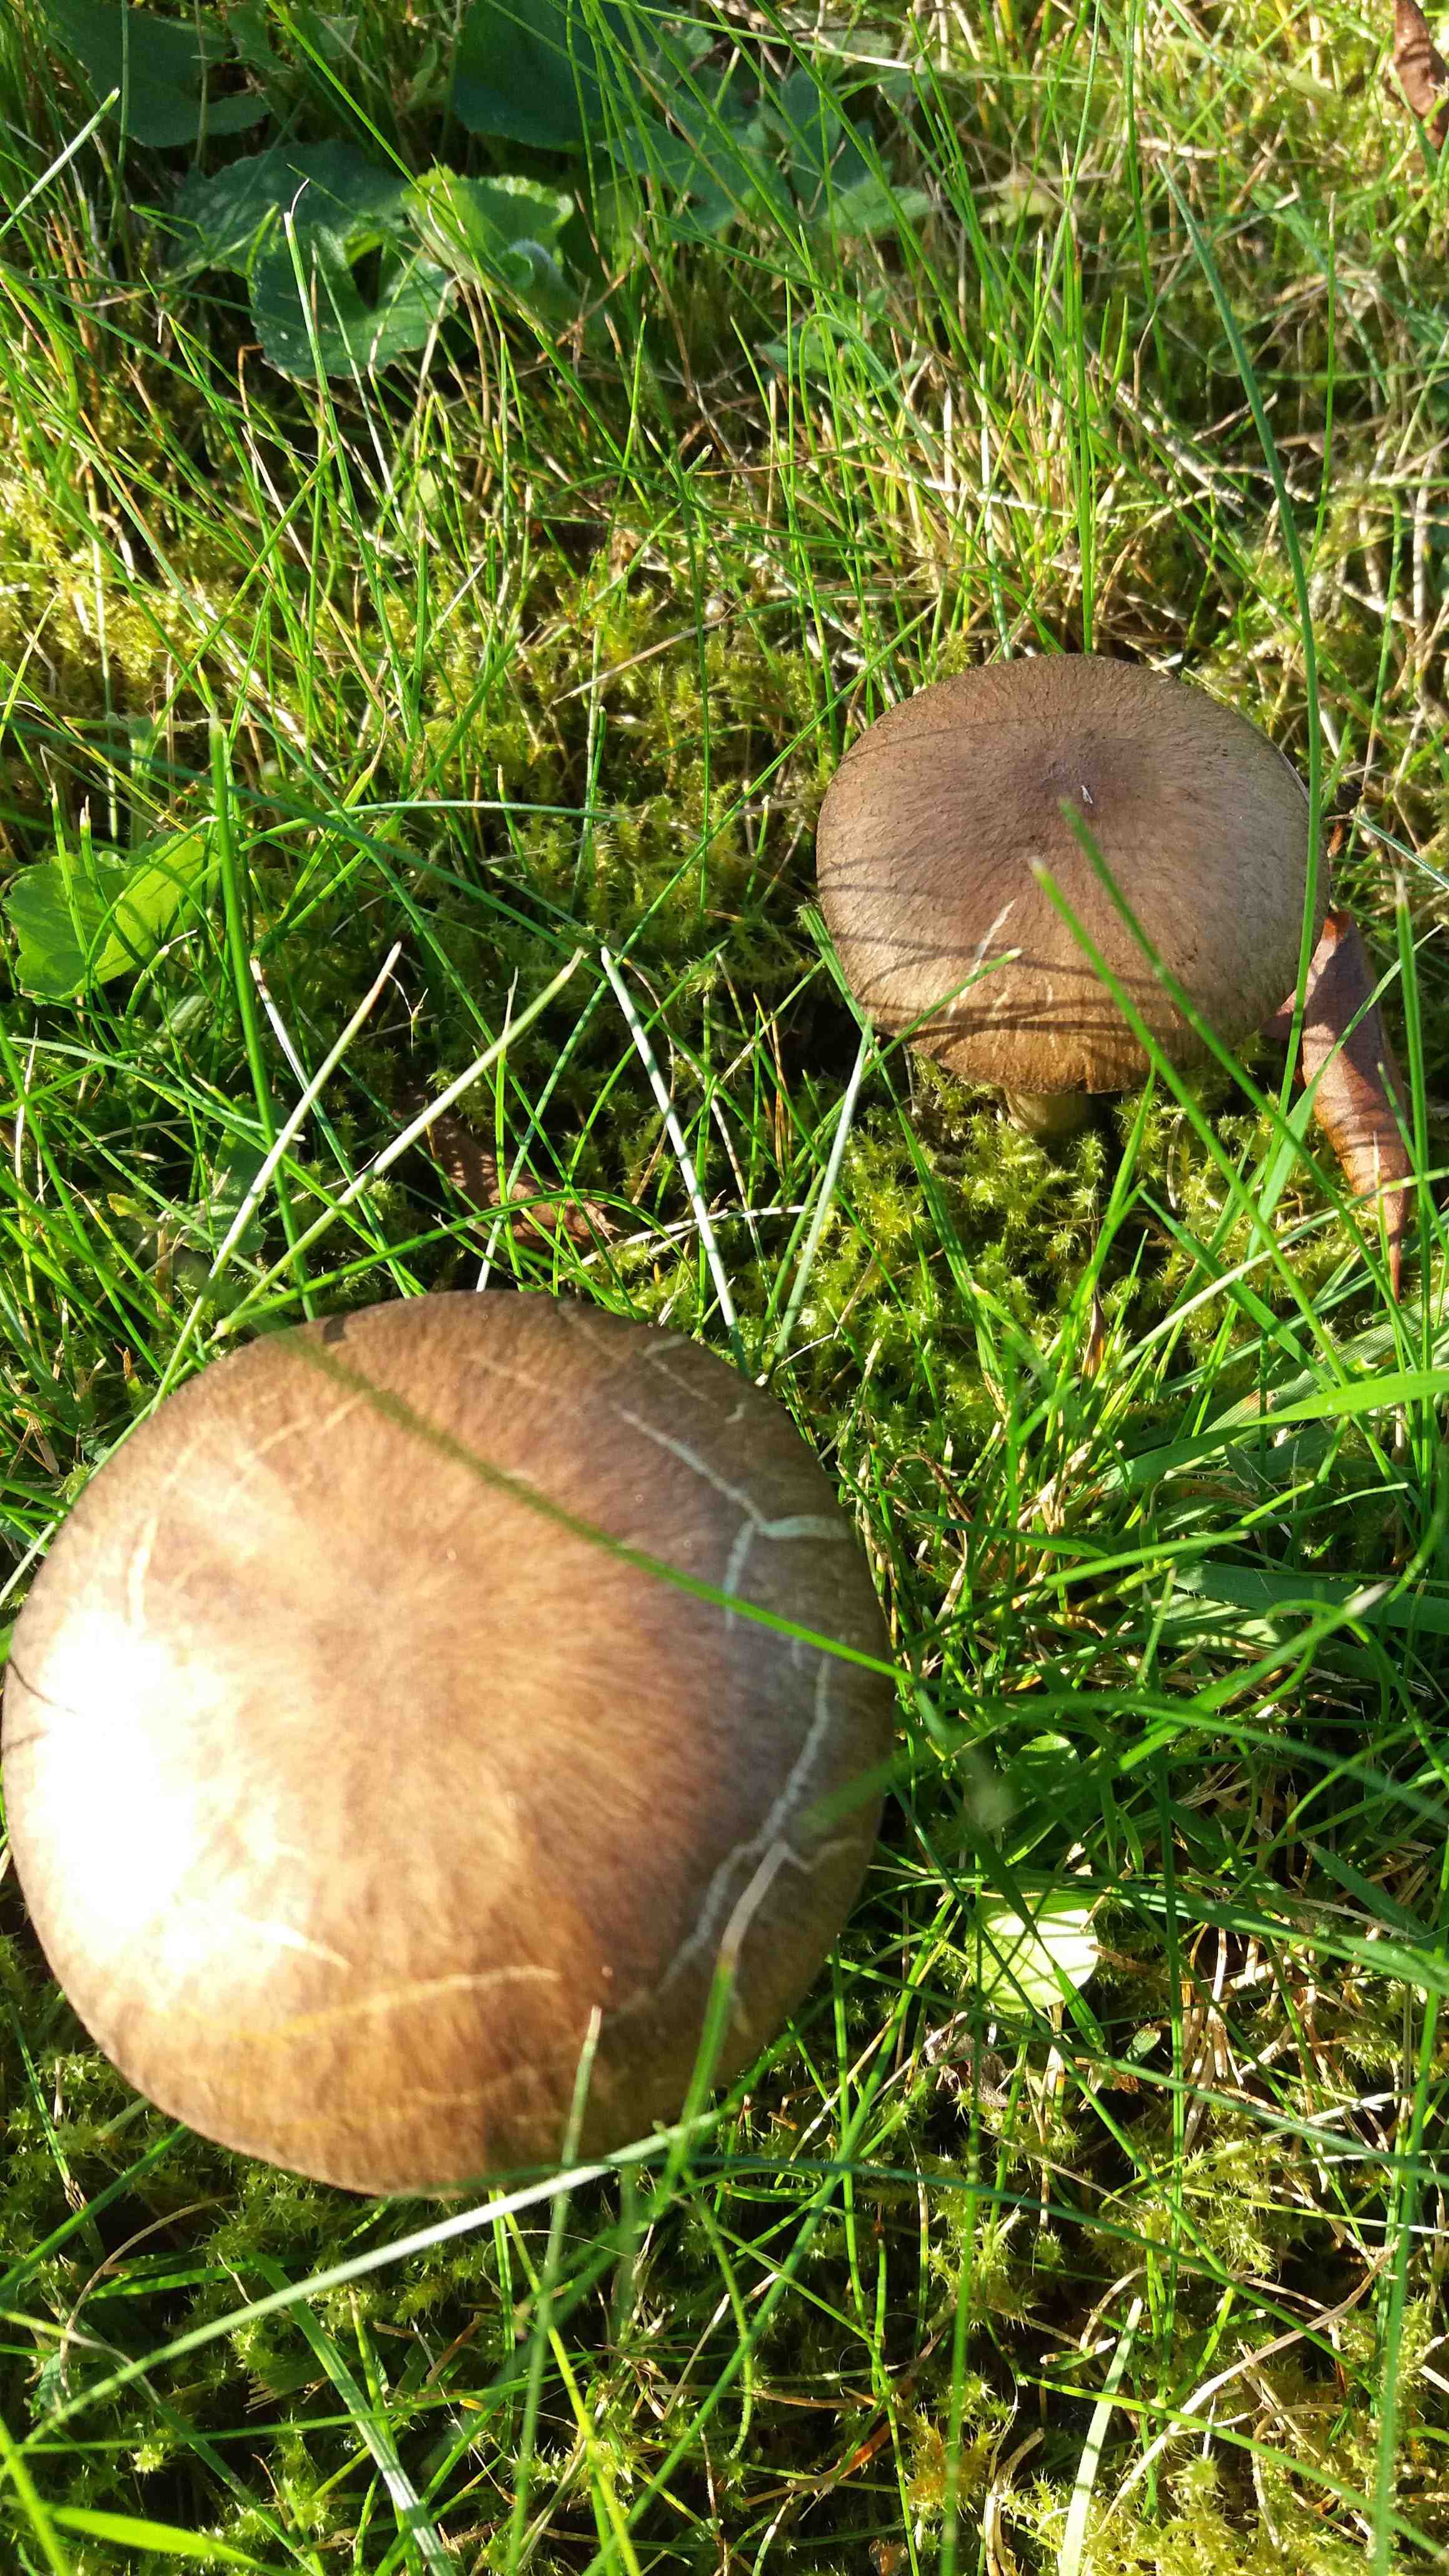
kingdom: Fungi
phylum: Basidiomycota
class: Agaricomycetes
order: Agaricales
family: Psathyrellaceae
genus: Lacrymaria
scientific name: Lacrymaria lacrymabunda
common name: grædende mørkhat
